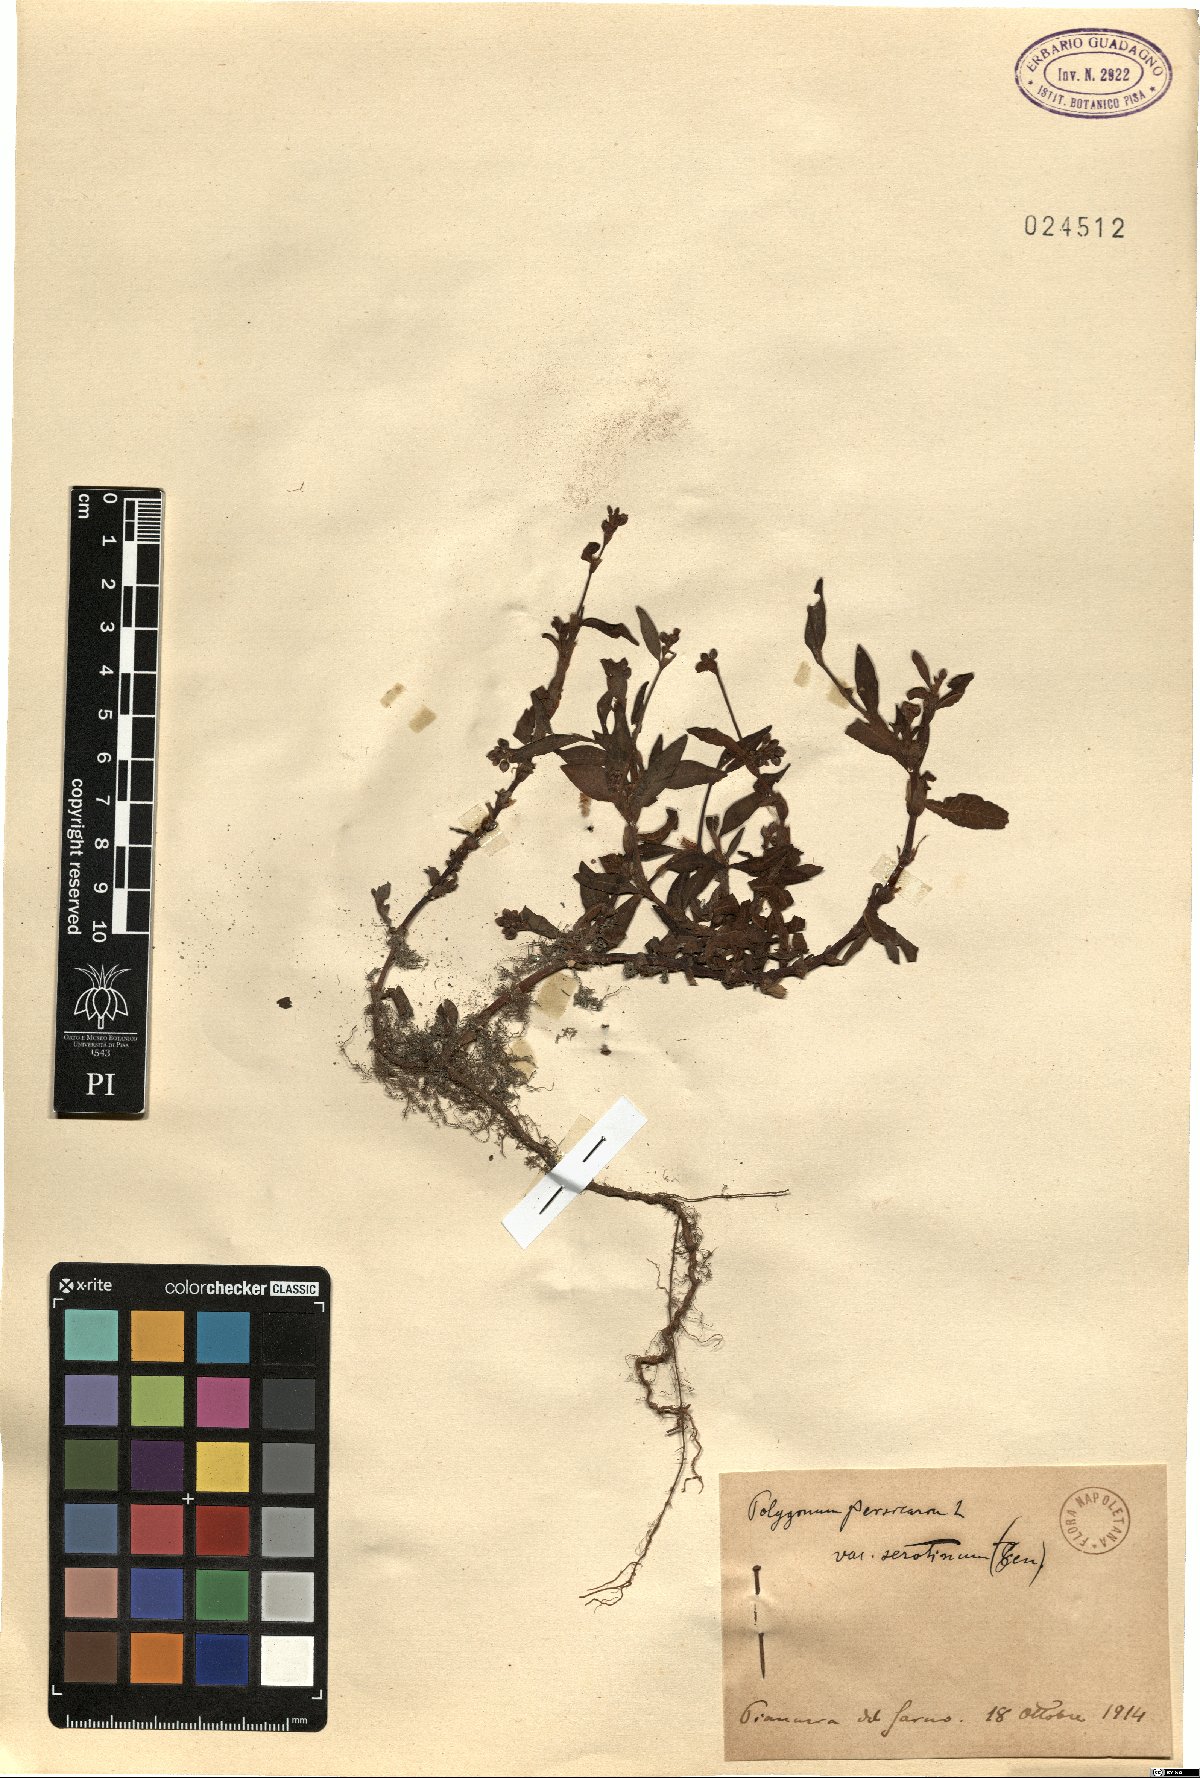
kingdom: Plantae
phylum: Tracheophyta
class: Magnoliopsida
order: Caryophyllales
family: Polygonaceae
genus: Polygonum
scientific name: Polygonum persicaria
